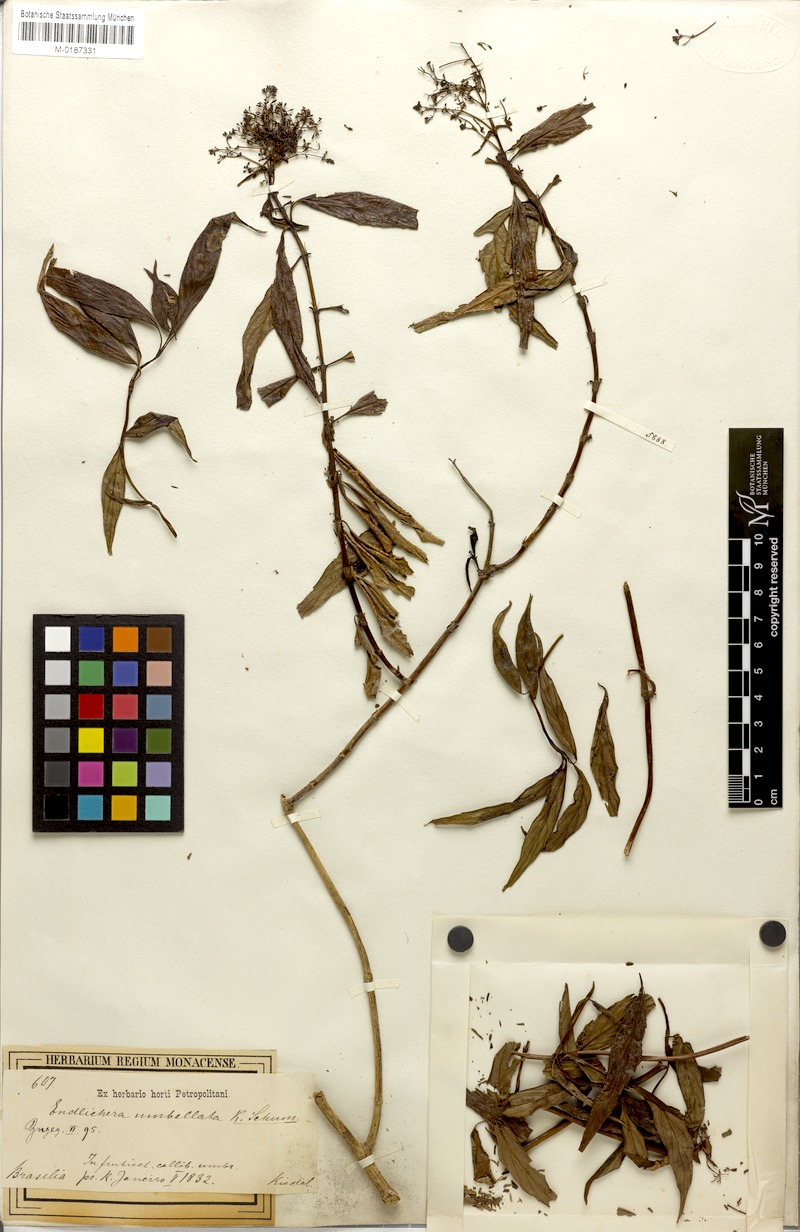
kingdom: Plantae
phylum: Tracheophyta
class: Magnoliopsida
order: Gentianales
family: Rubiaceae
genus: Emmeorhiza
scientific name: Emmeorhiza umbellata
